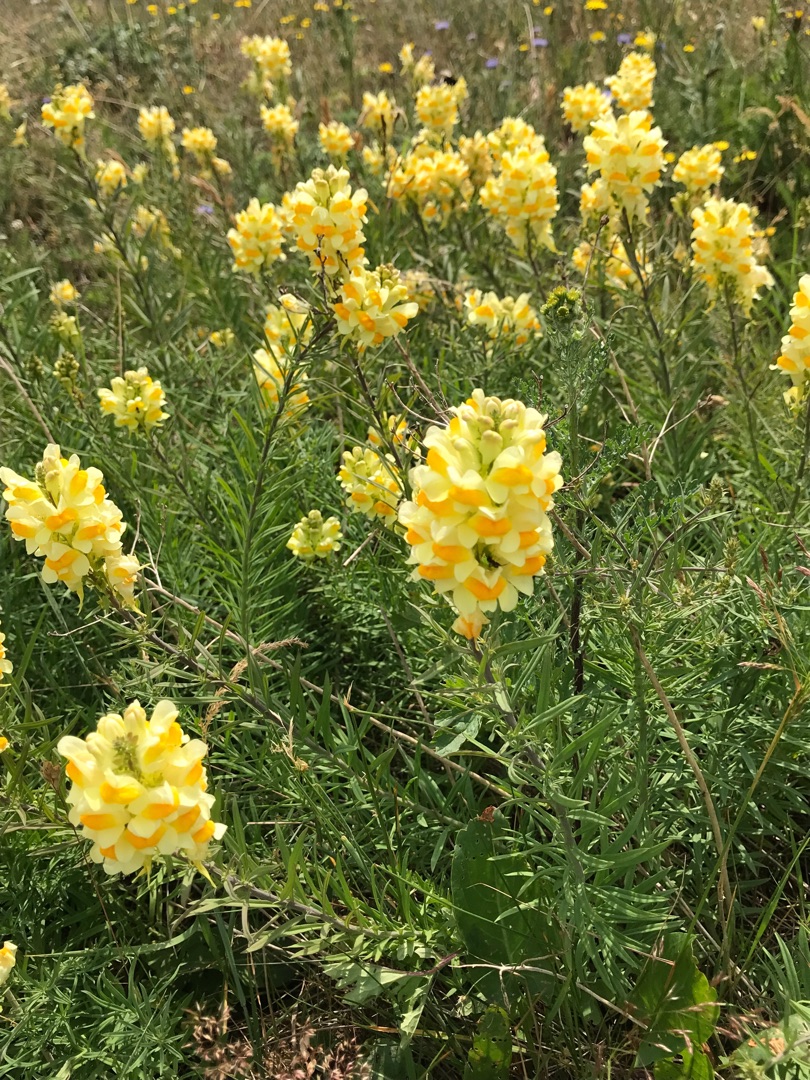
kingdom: Plantae
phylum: Tracheophyta
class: Magnoliopsida
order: Lamiales
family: Plantaginaceae
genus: Linaria
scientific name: Linaria vulgaris
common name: Almindelig torskemund
